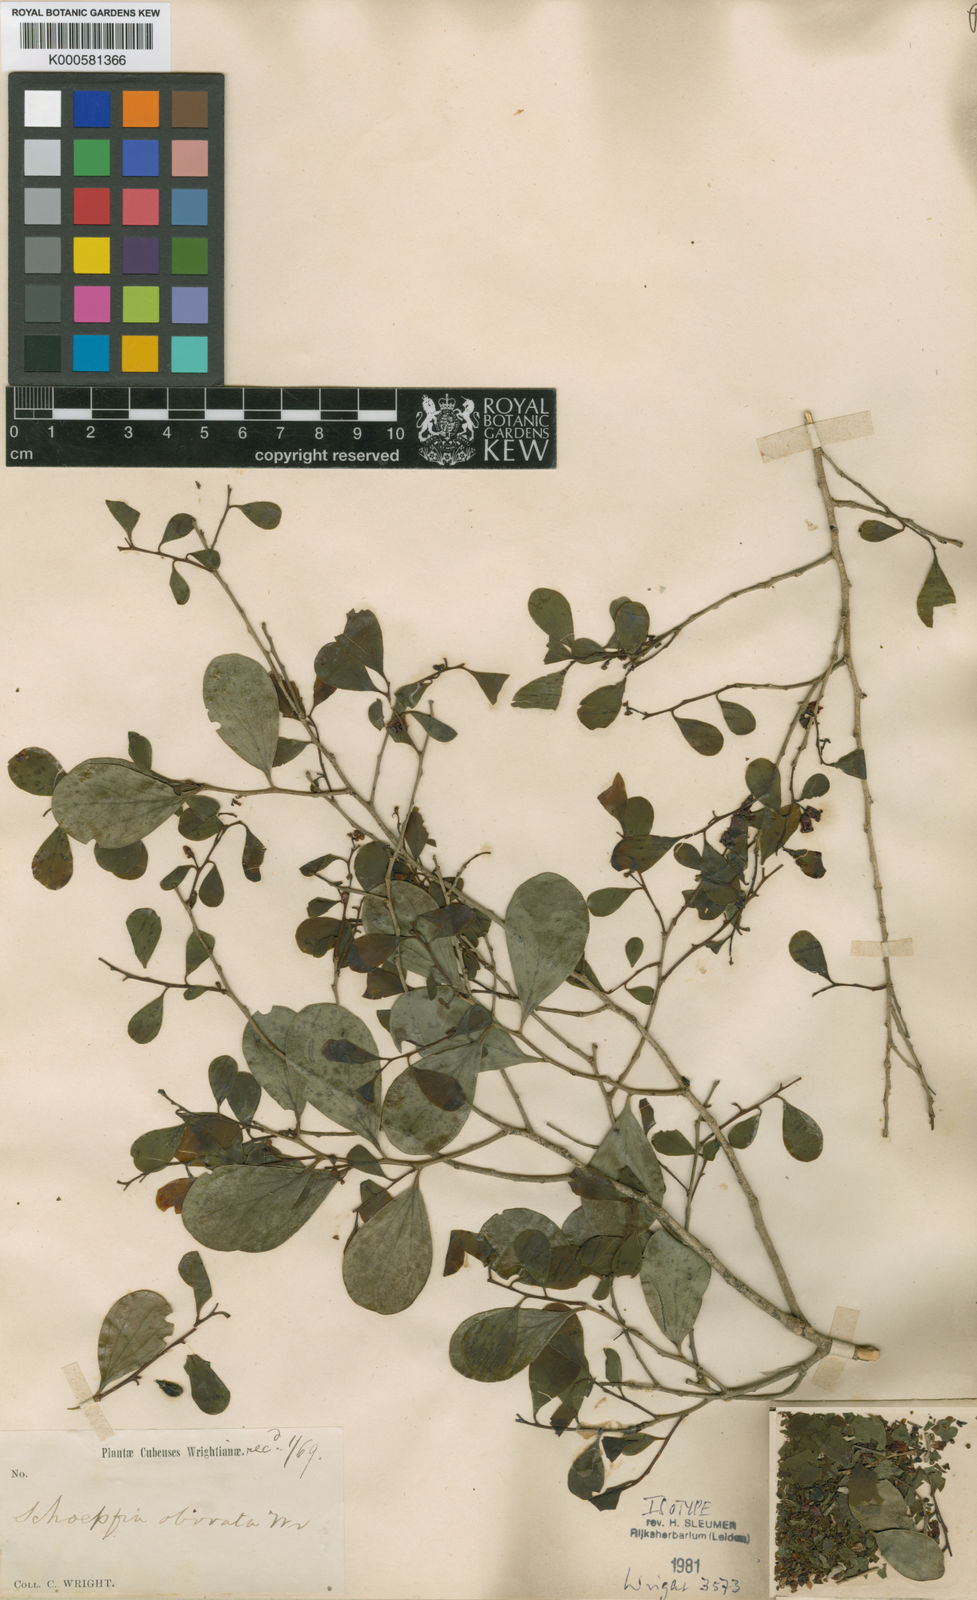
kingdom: Plantae
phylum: Tracheophyta
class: Magnoliopsida
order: Santalales
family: Schoepfiaceae
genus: Schoepfia
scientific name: Schoepfia obovata
